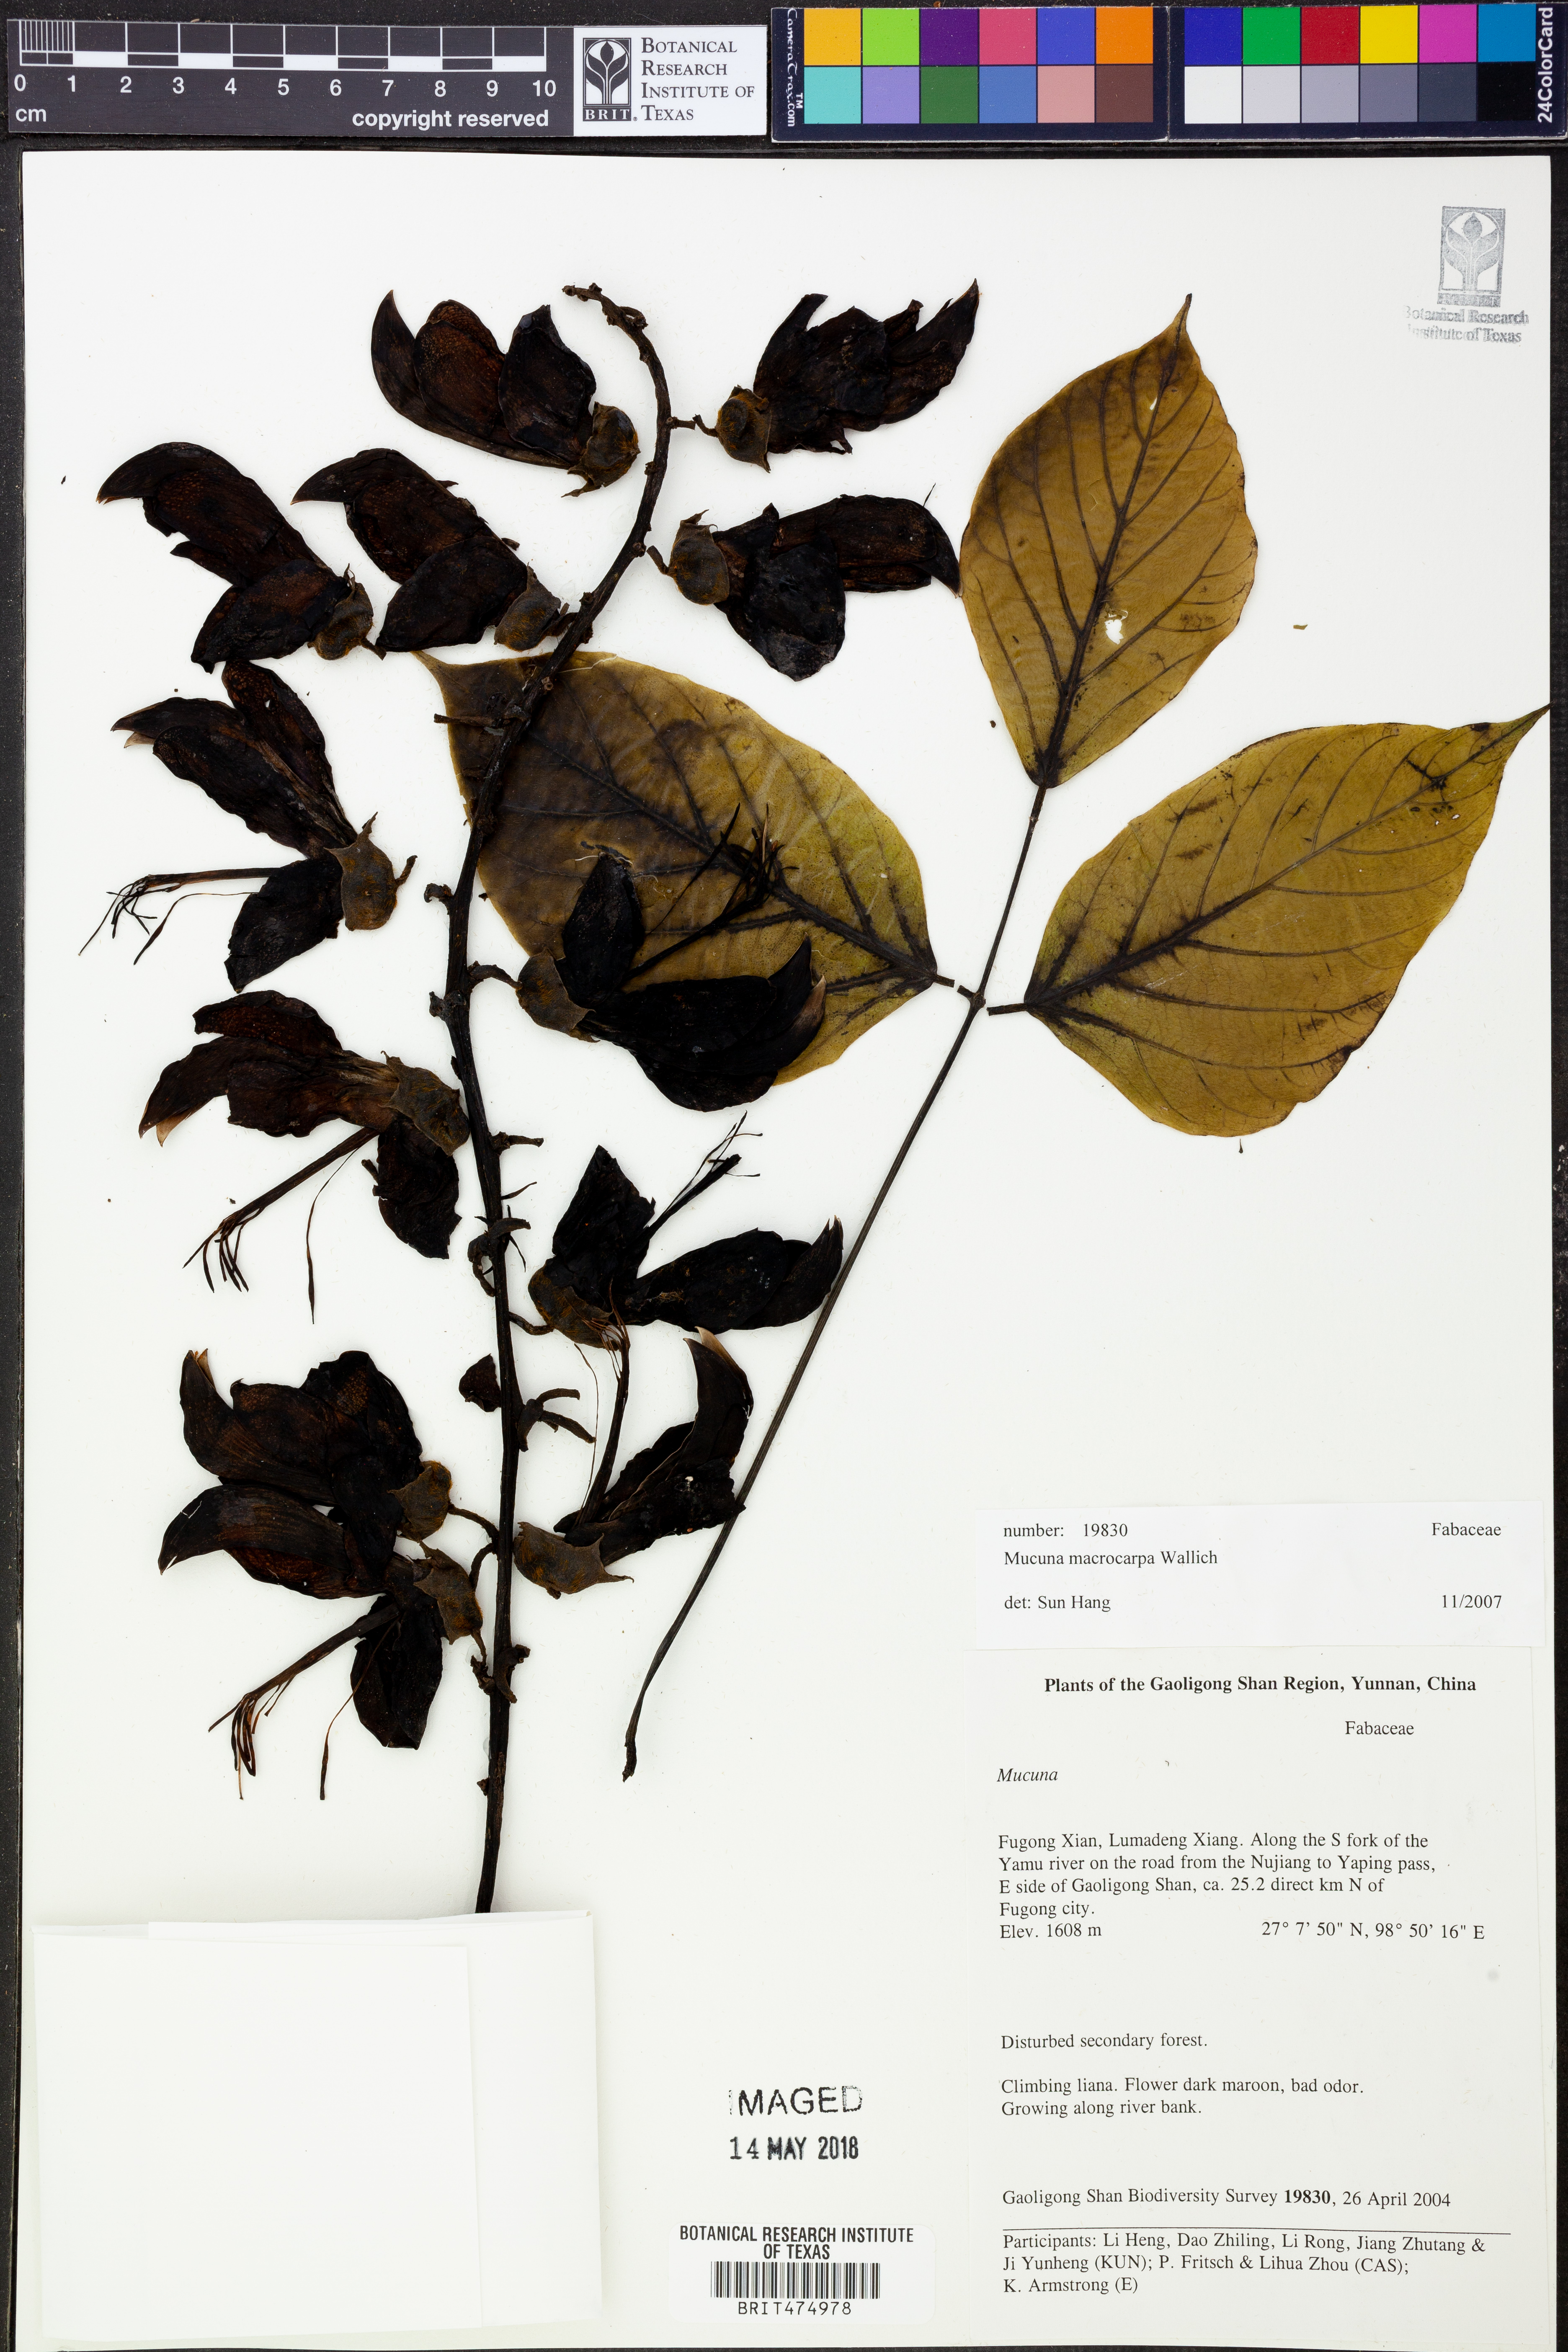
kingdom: Plantae
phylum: Tracheophyta
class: Magnoliopsida
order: Fabales
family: Fabaceae
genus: Mucuna
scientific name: Mucuna macrocarpa
